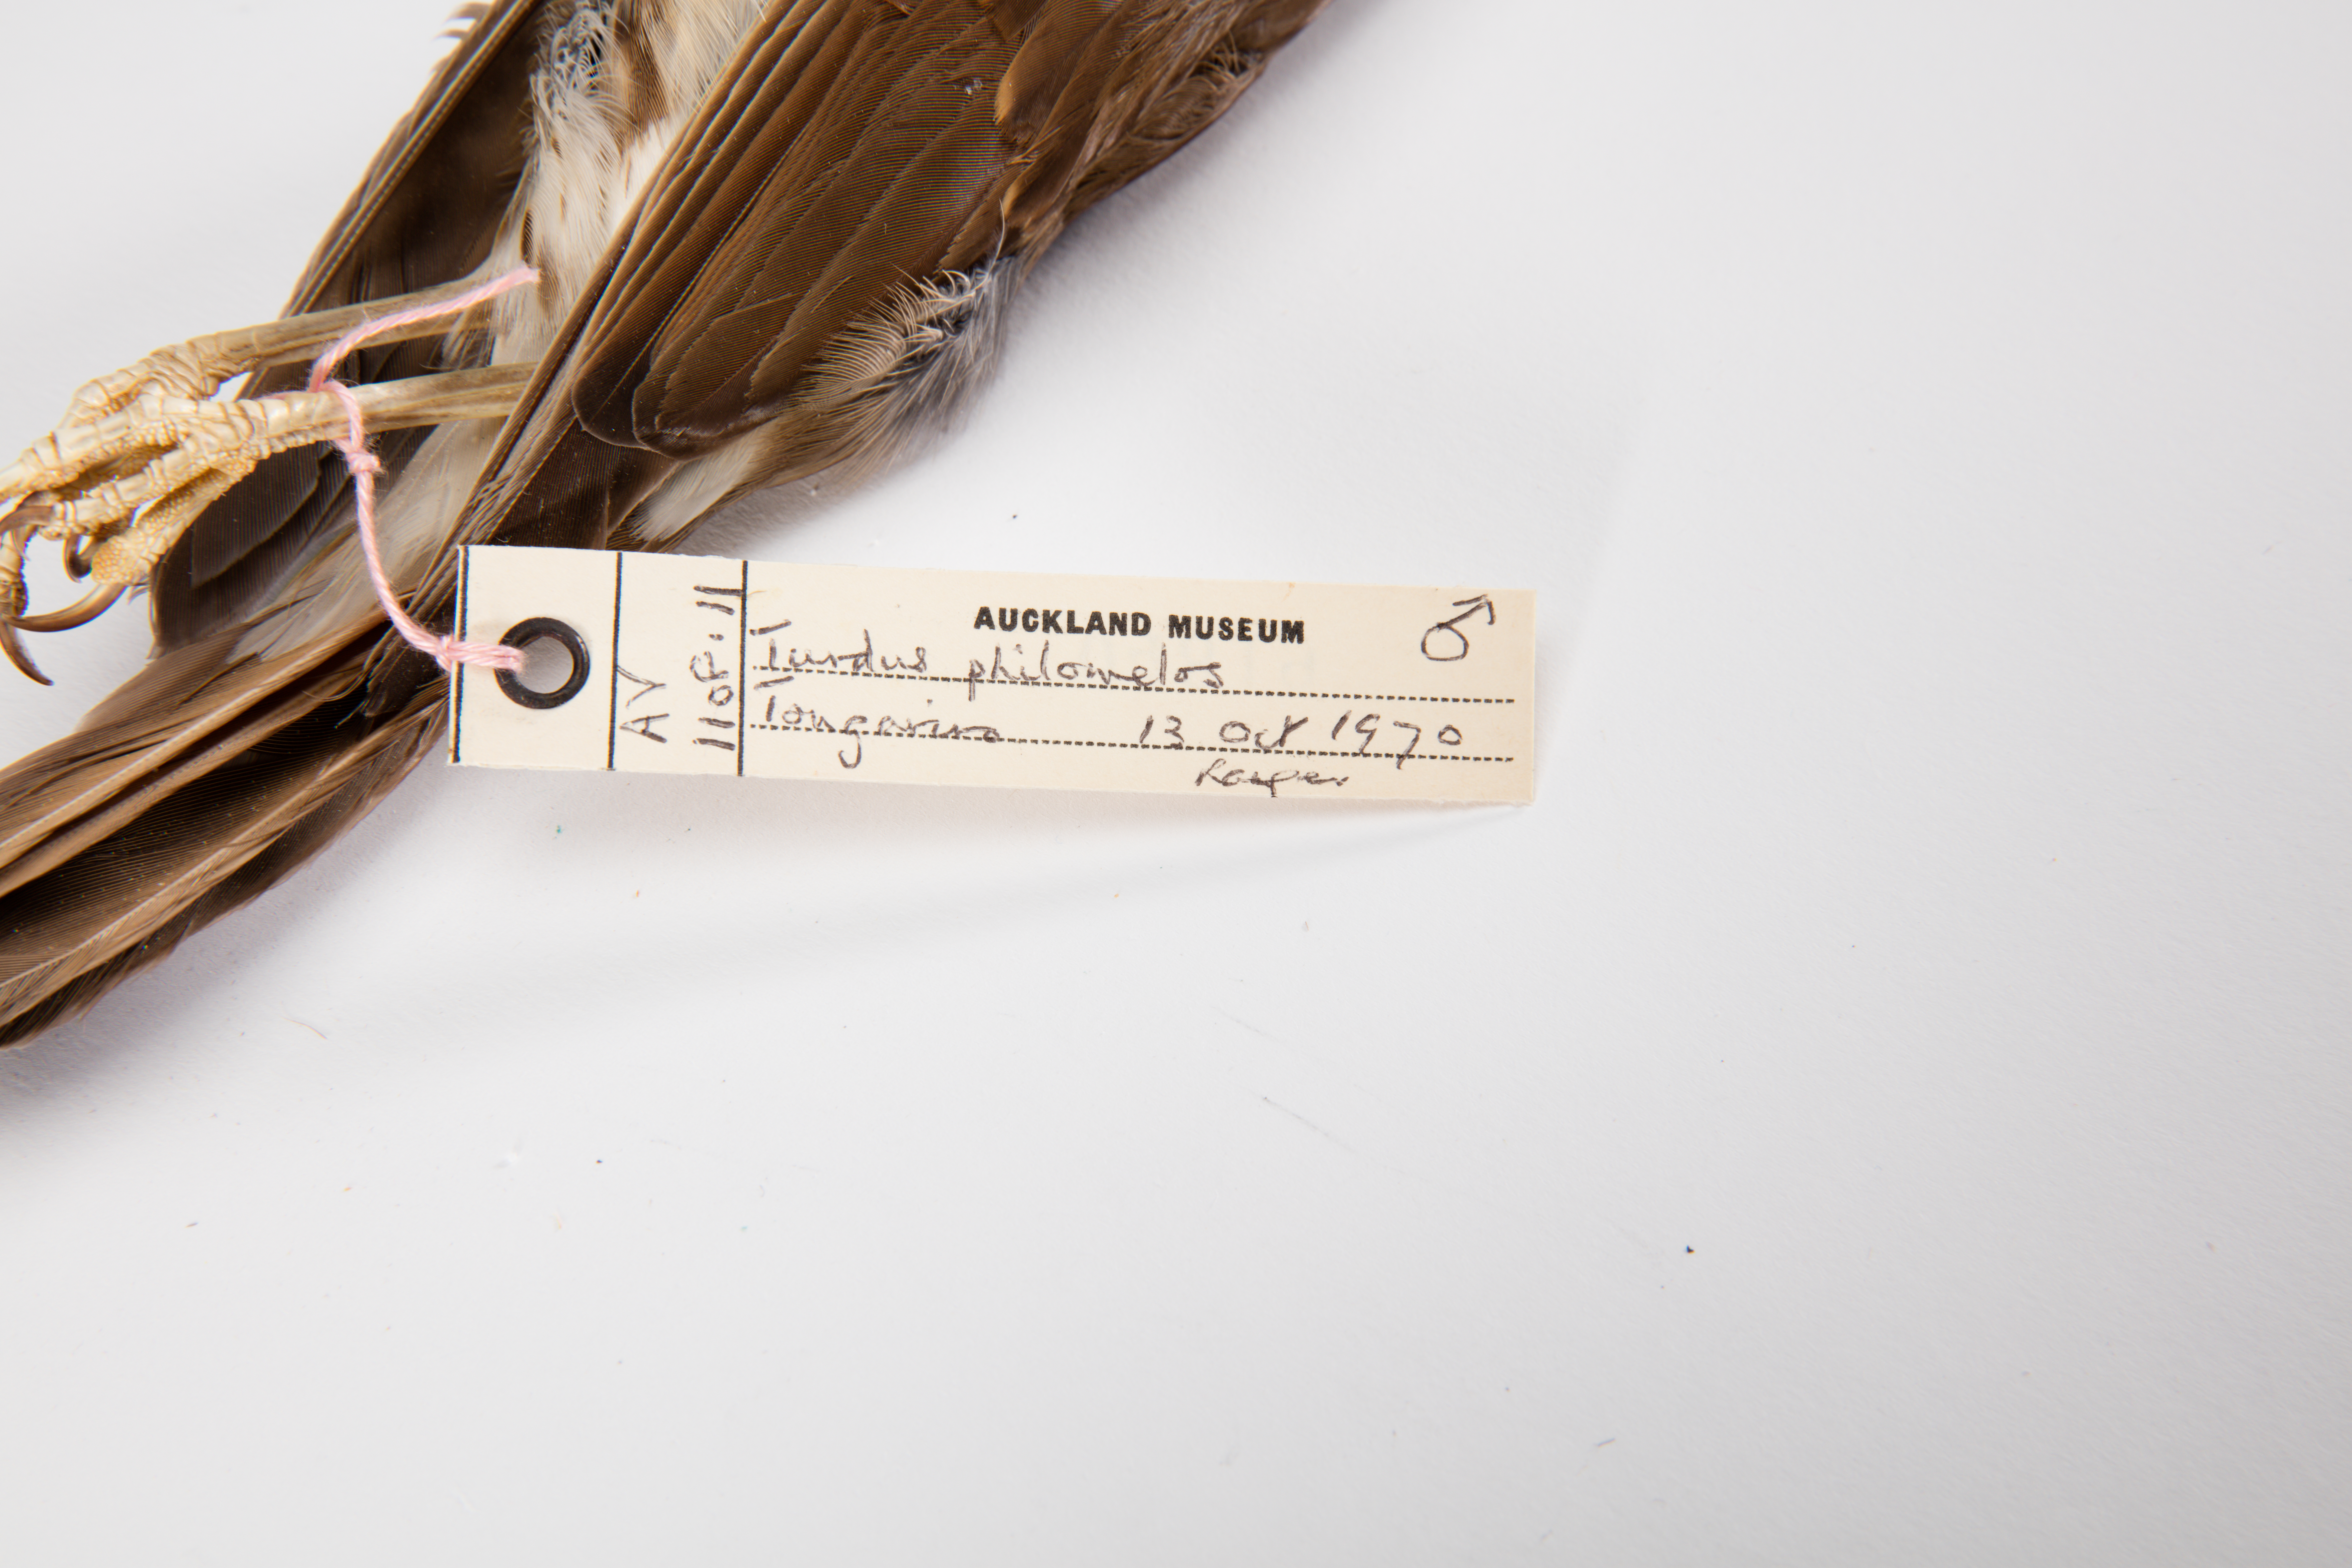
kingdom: Animalia
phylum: Chordata
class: Aves
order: Passeriformes
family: Turdidae
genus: Turdus
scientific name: Turdus philomelos
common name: Song thrush
